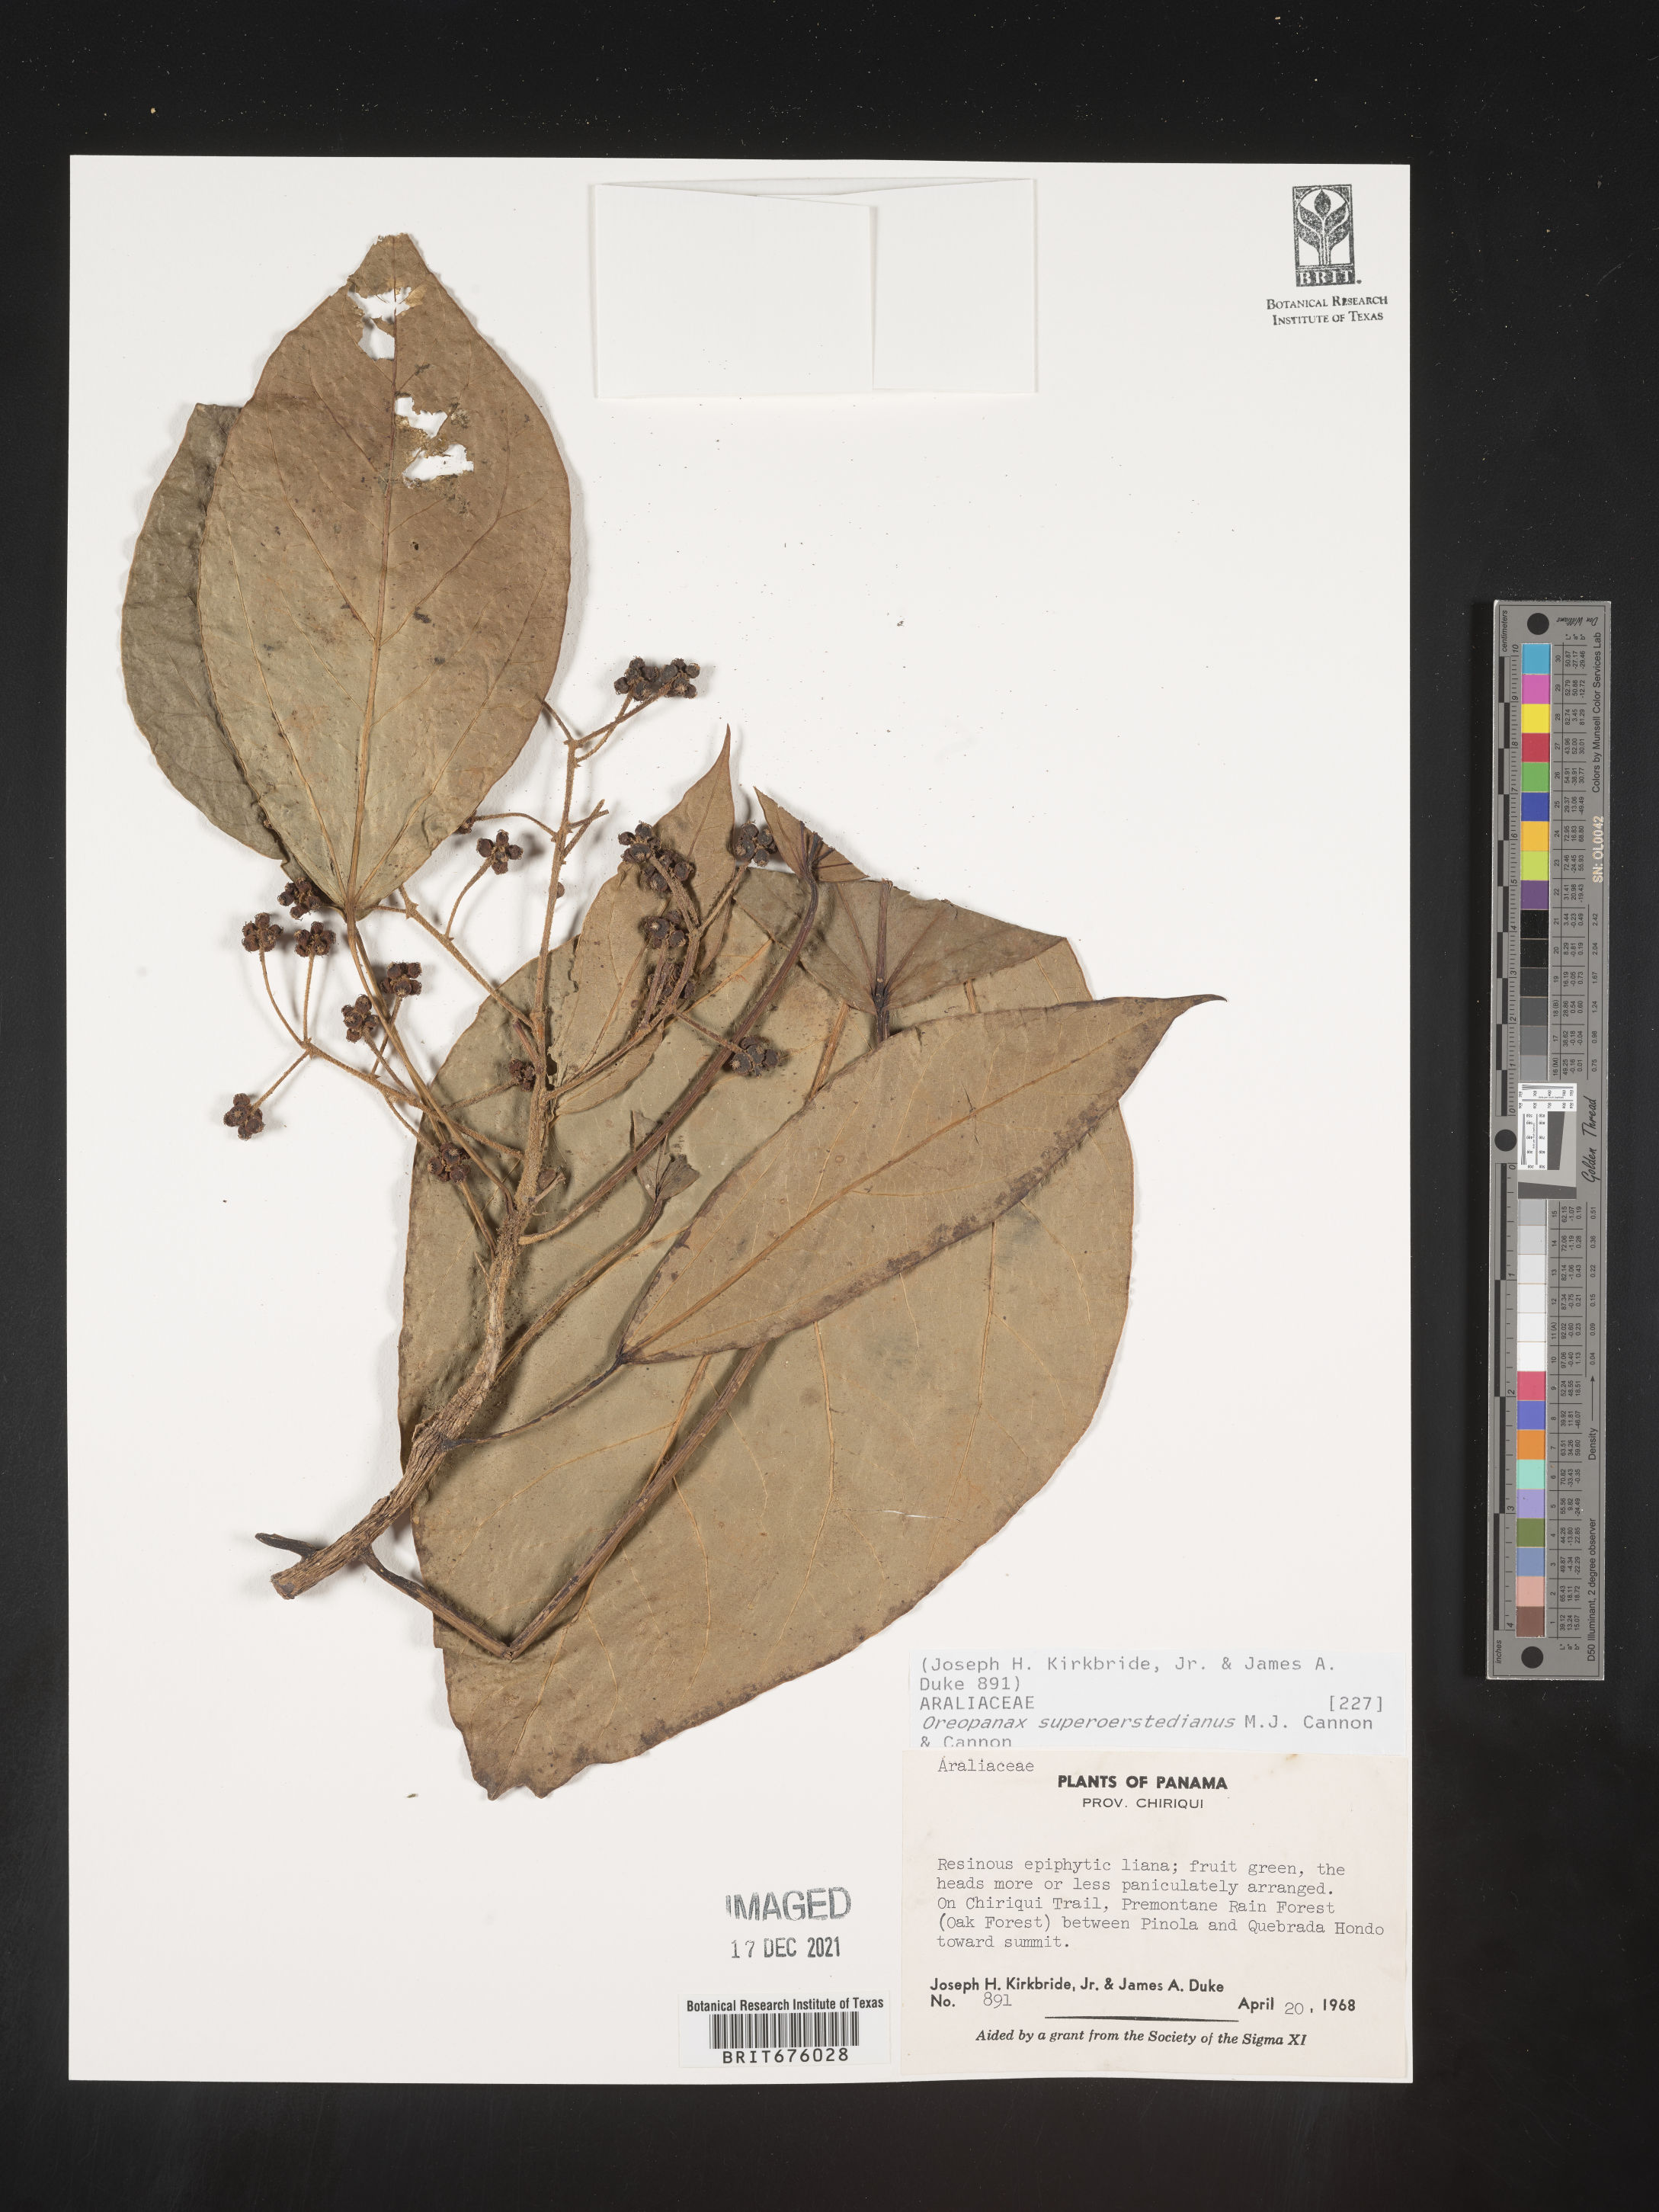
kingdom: Plantae
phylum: Tracheophyta
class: Magnoliopsida
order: Apiales
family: Araliaceae
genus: Oreopanax
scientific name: Oreopanax
